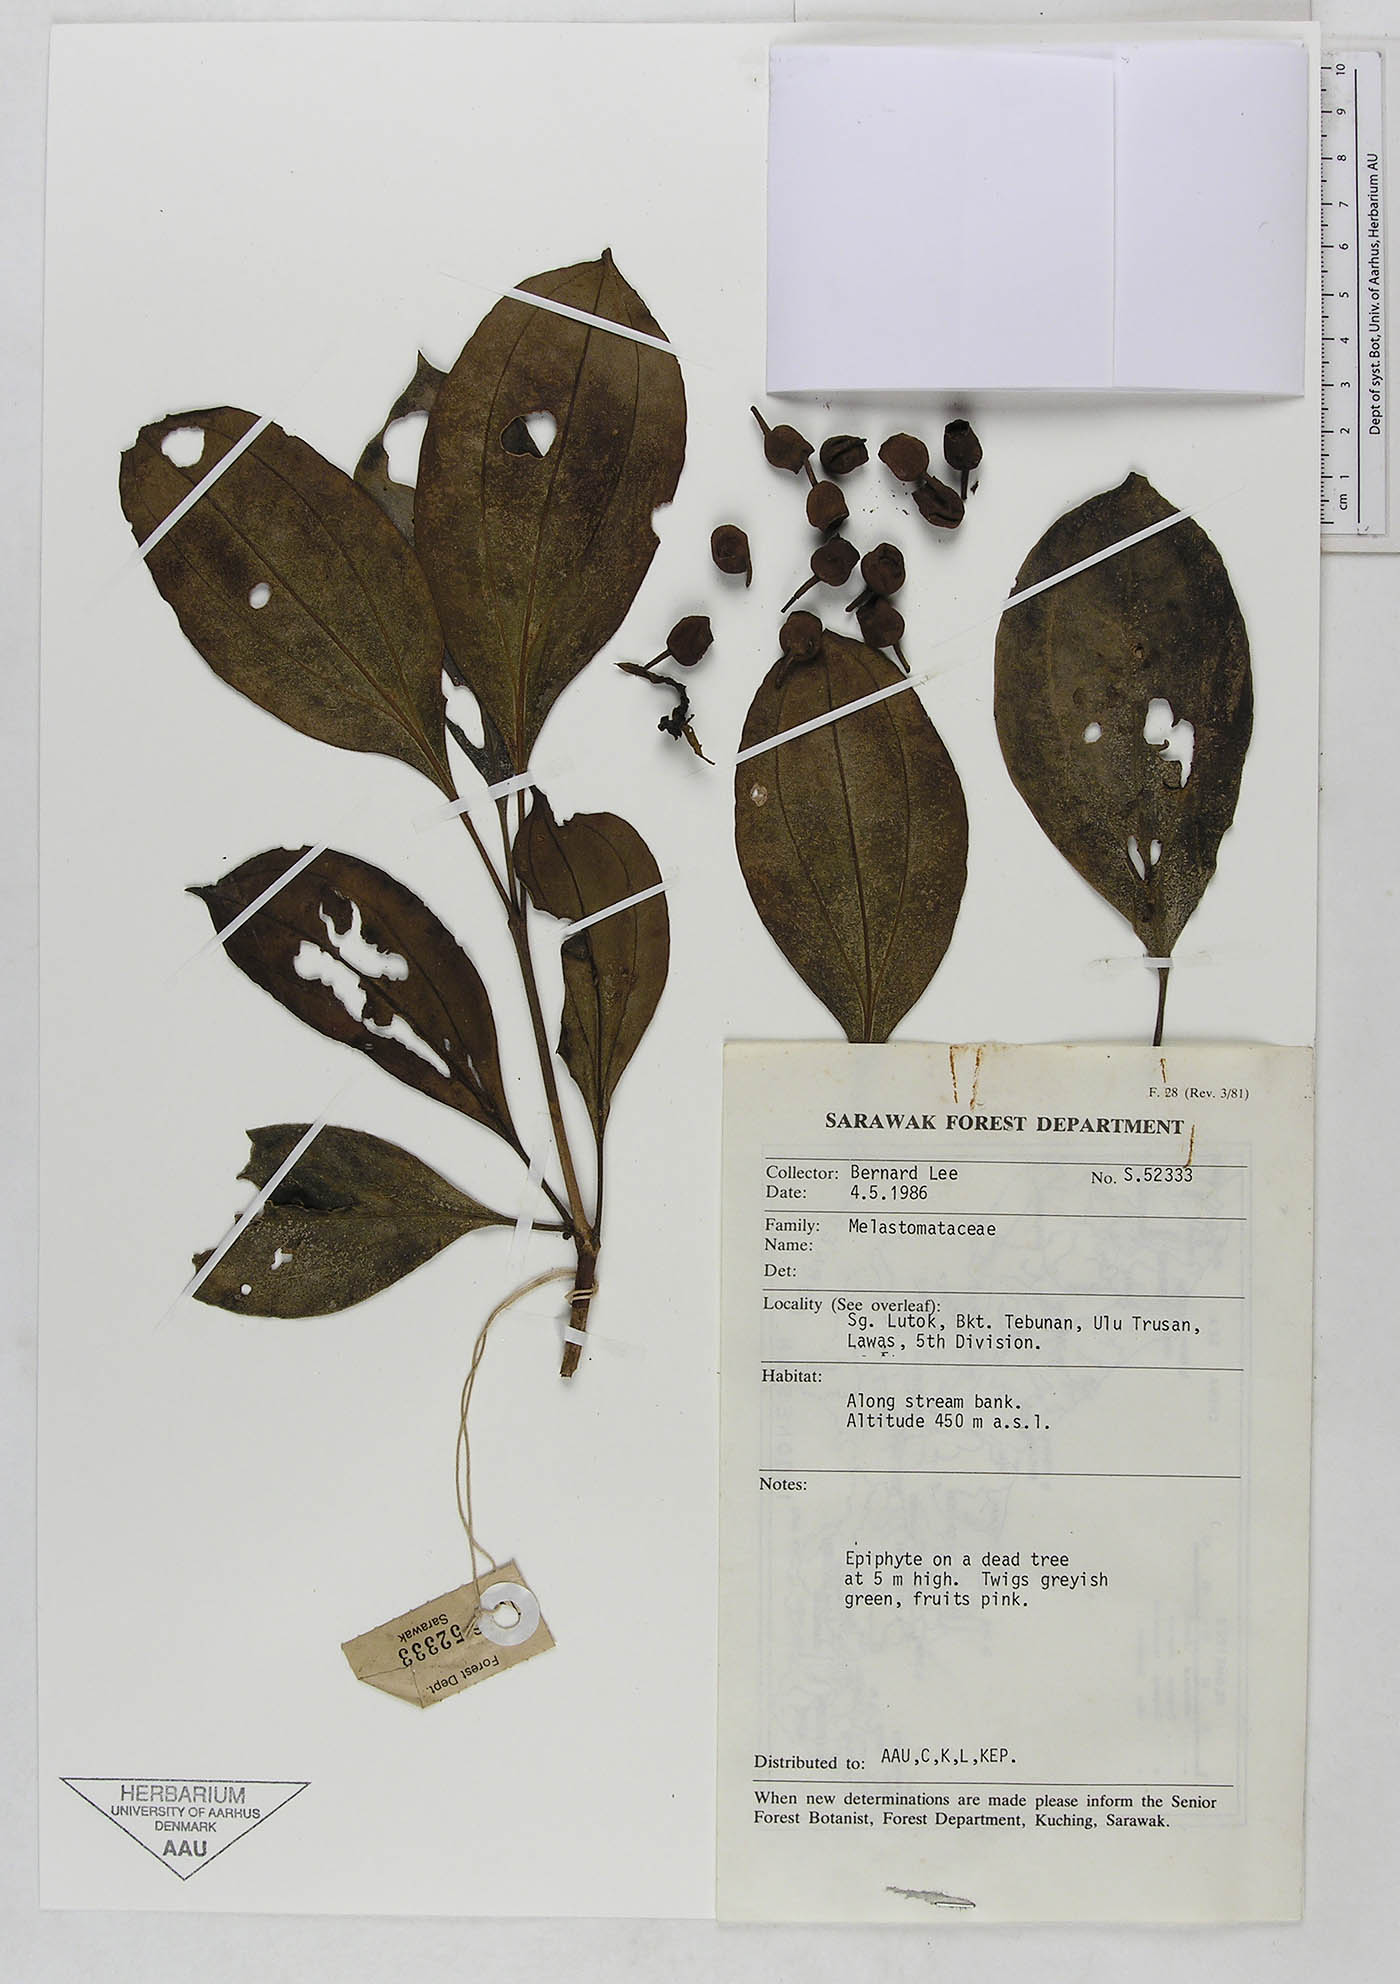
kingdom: Plantae
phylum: Tracheophyta
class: Magnoliopsida
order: Myrtales
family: Melastomataceae
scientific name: Melastomataceae
